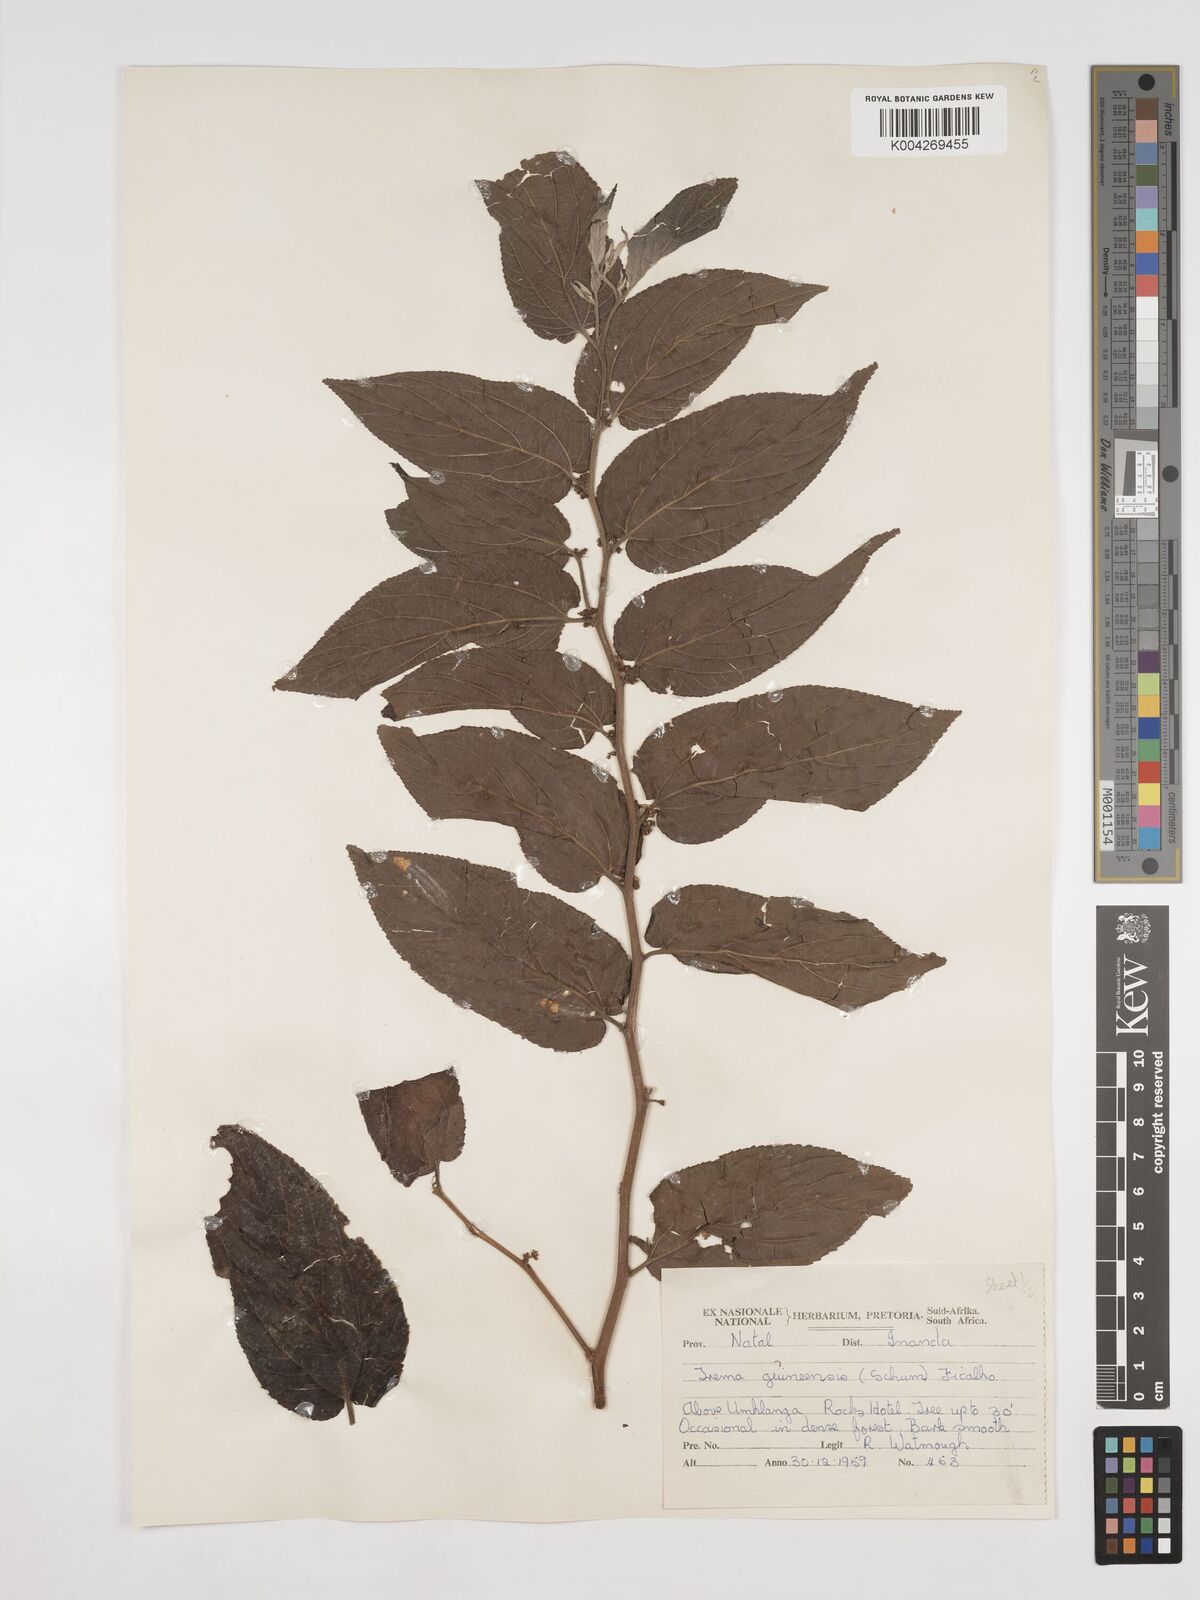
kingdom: Plantae
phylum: Tracheophyta
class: Magnoliopsida
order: Rosales
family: Cannabaceae
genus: Trema
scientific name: Trema orientale
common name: Indian charcoal tree
